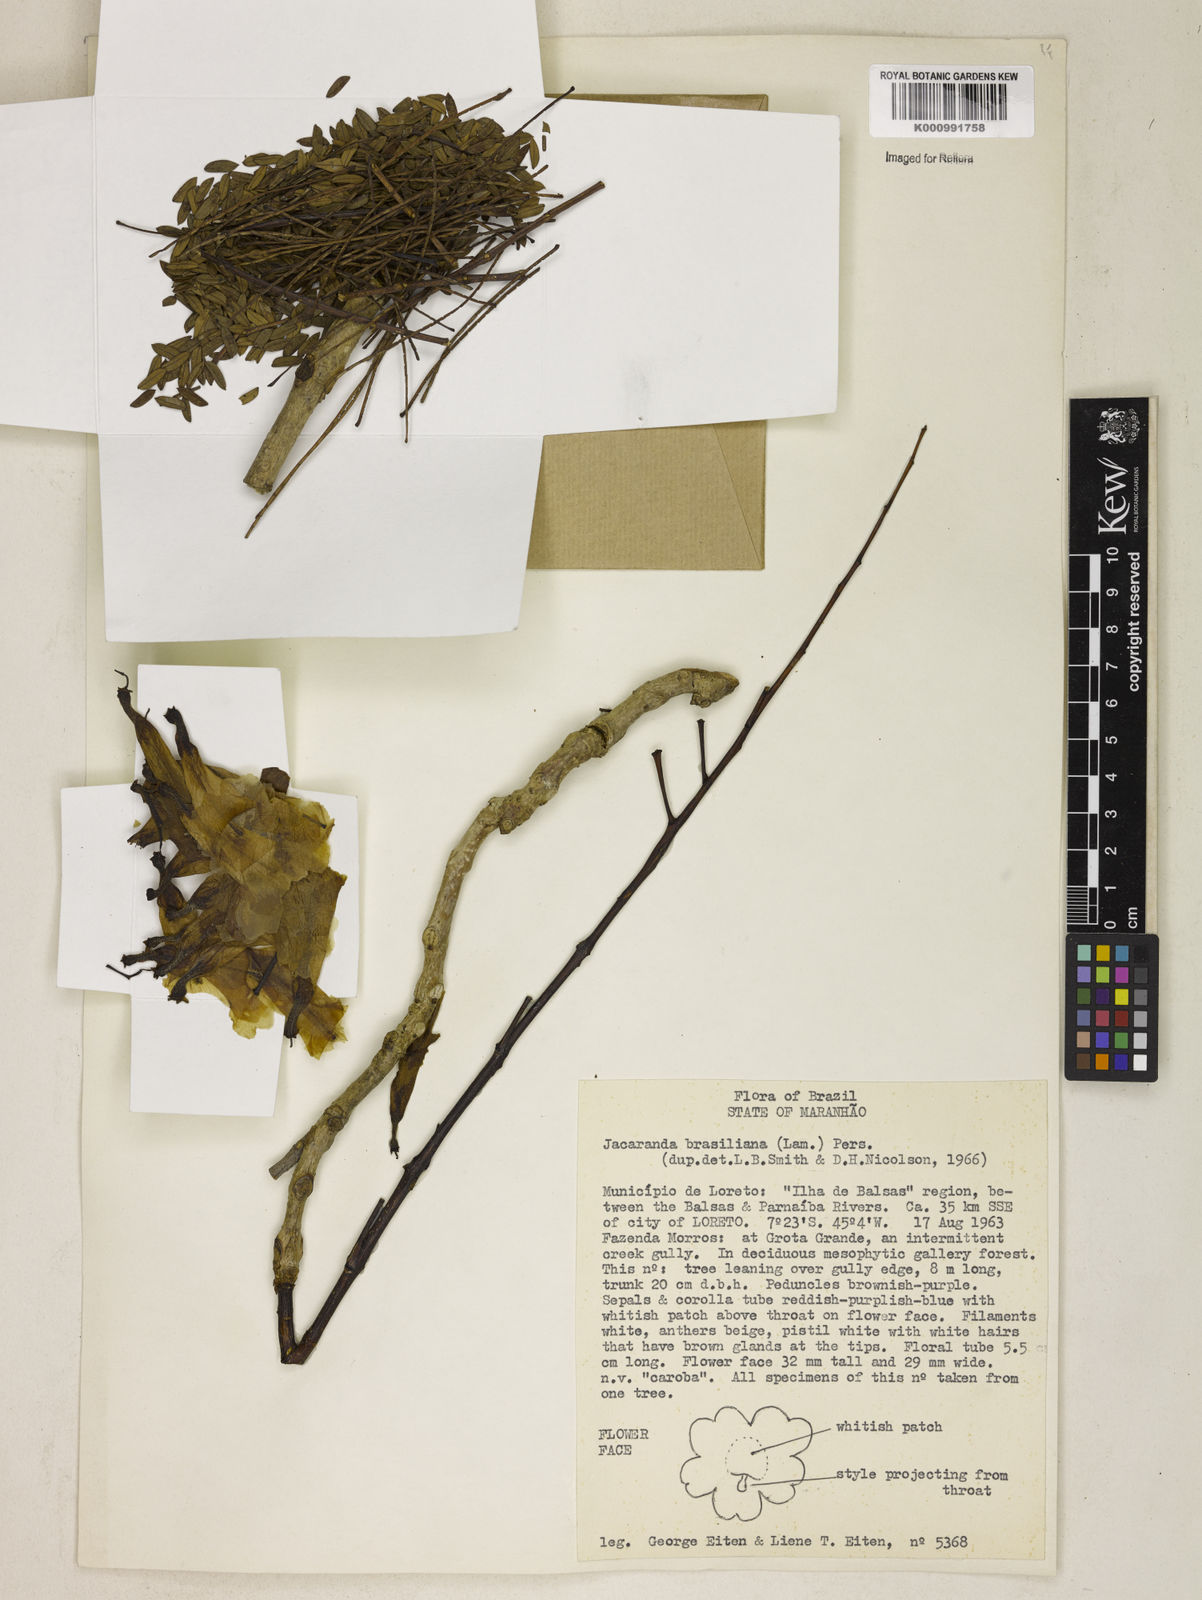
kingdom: Plantae
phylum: Tracheophyta
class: Magnoliopsida
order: Lamiales
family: Bignoniaceae
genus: Jacaranda
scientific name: Jacaranda brasiliana
